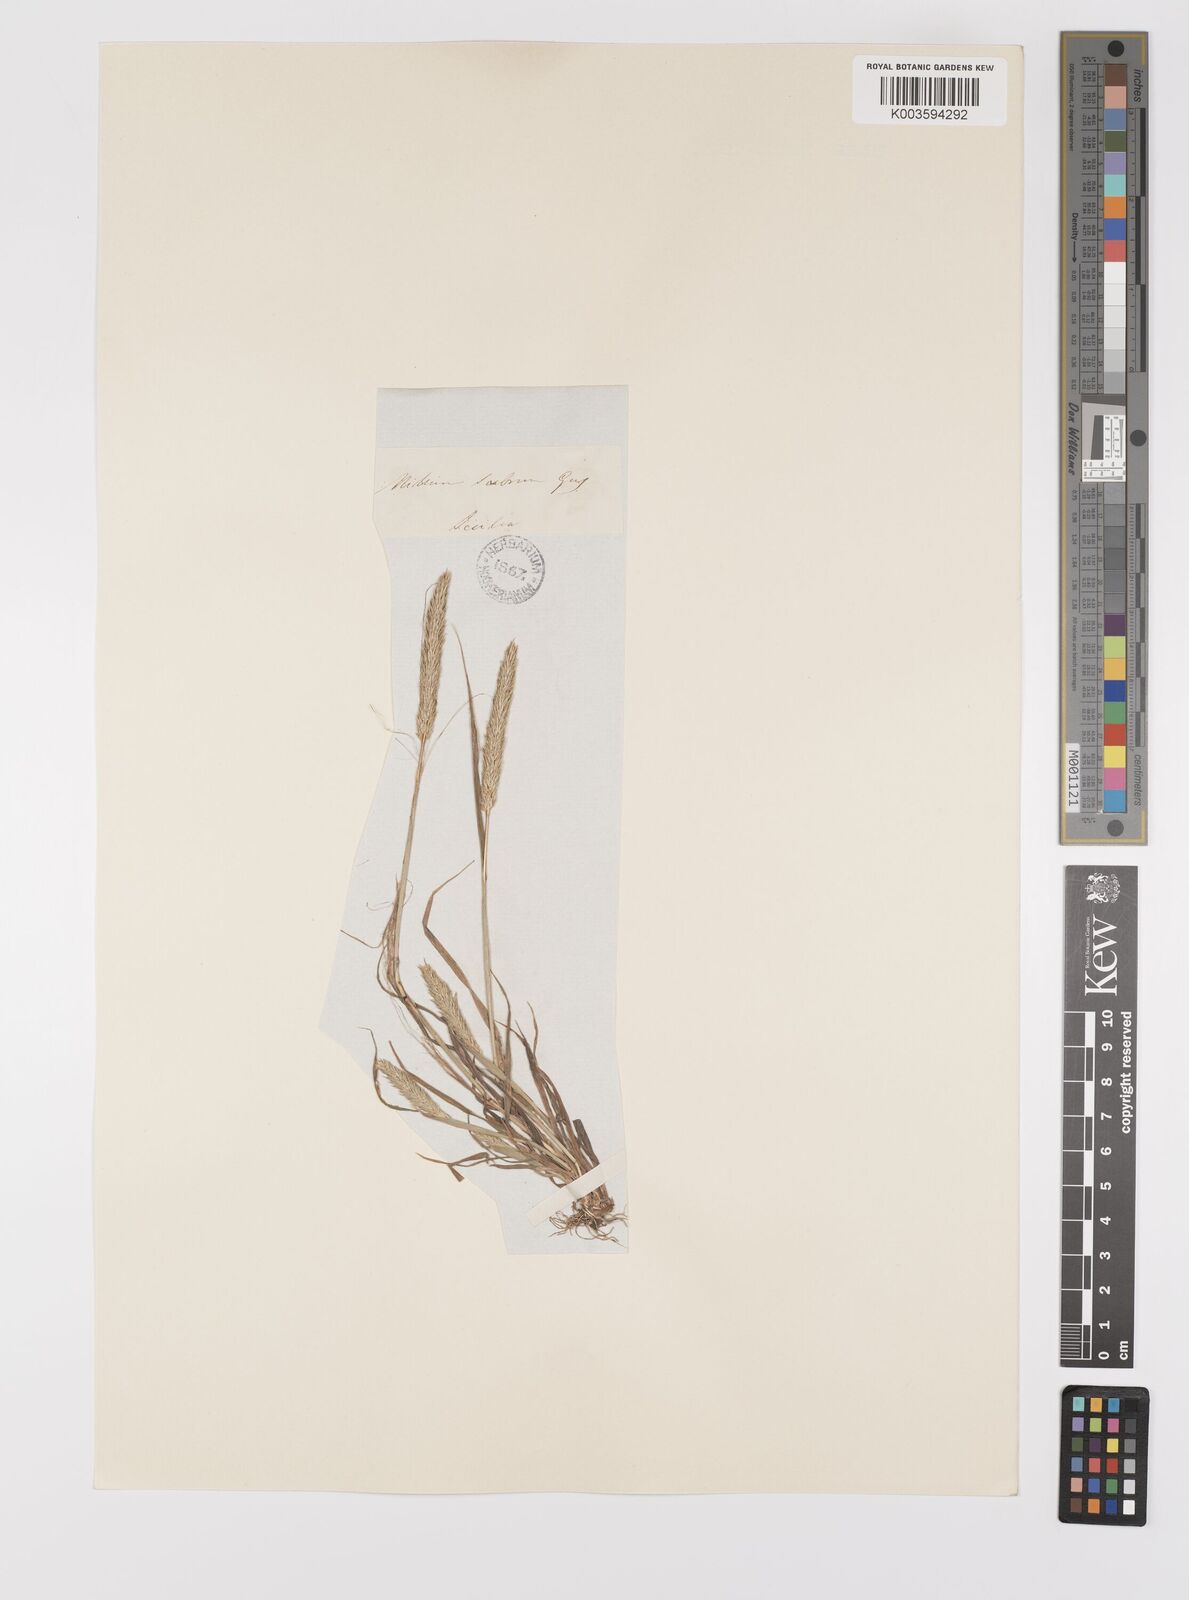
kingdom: Plantae
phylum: Tracheophyta
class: Liliopsida
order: Poales
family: Poaceae
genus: Gastridium
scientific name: Gastridium ventricosum
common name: Nit-grass
